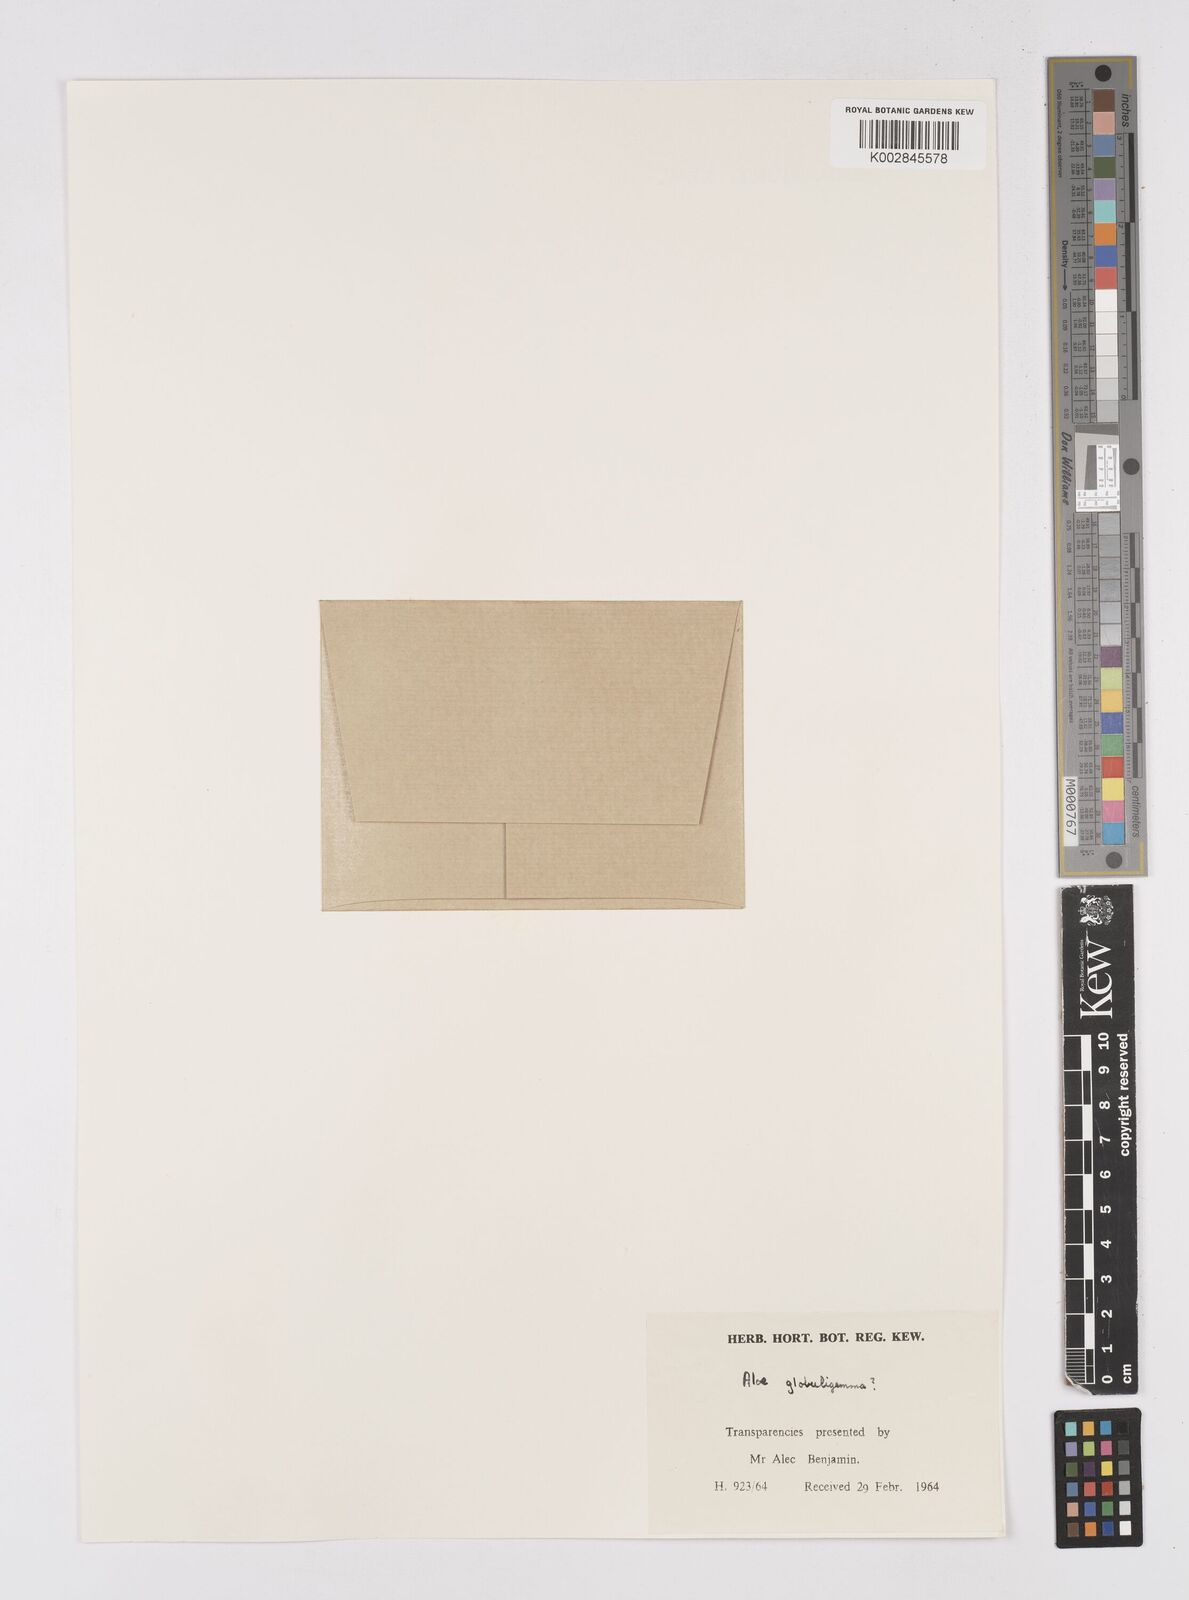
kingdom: Plantae
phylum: Tracheophyta
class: Liliopsida
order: Asparagales
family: Asphodelaceae
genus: Aloe
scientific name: Aloe globuligemma
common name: Witchdoctor's aloe
